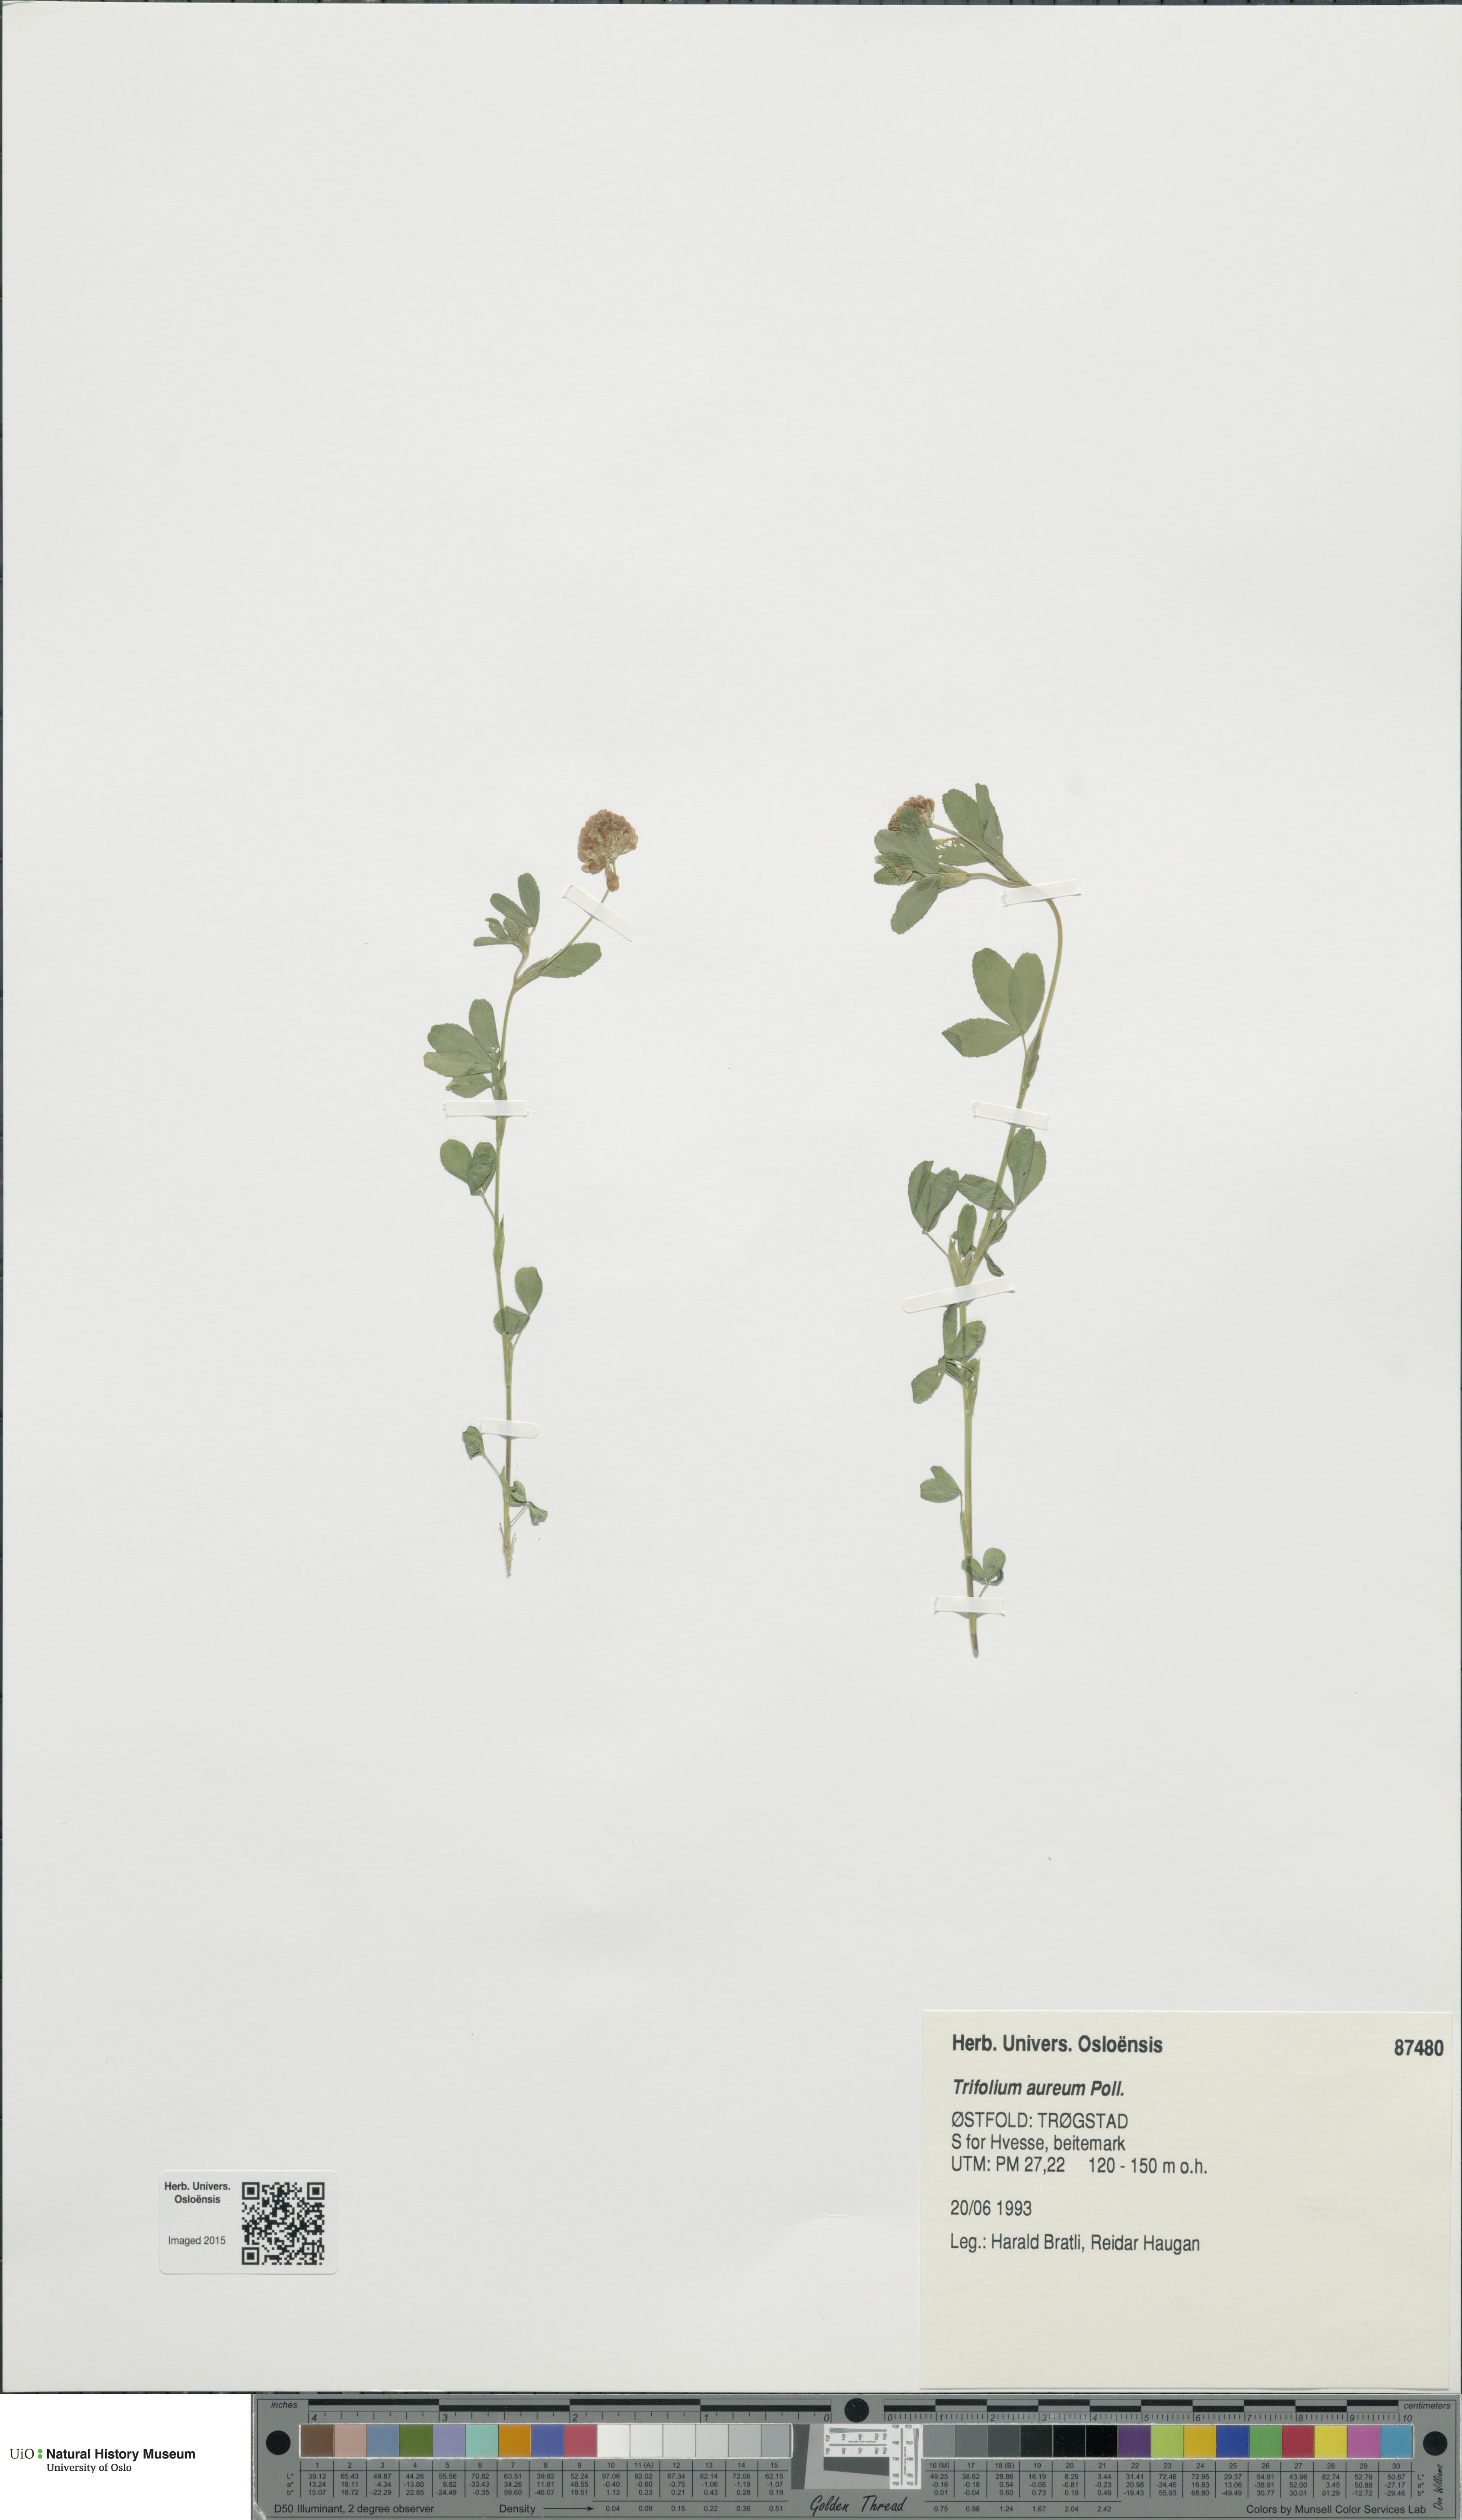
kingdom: Plantae
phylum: Tracheophyta
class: Magnoliopsida
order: Fabales
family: Fabaceae
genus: Trifolium
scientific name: Trifolium aureum
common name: Golden clover
